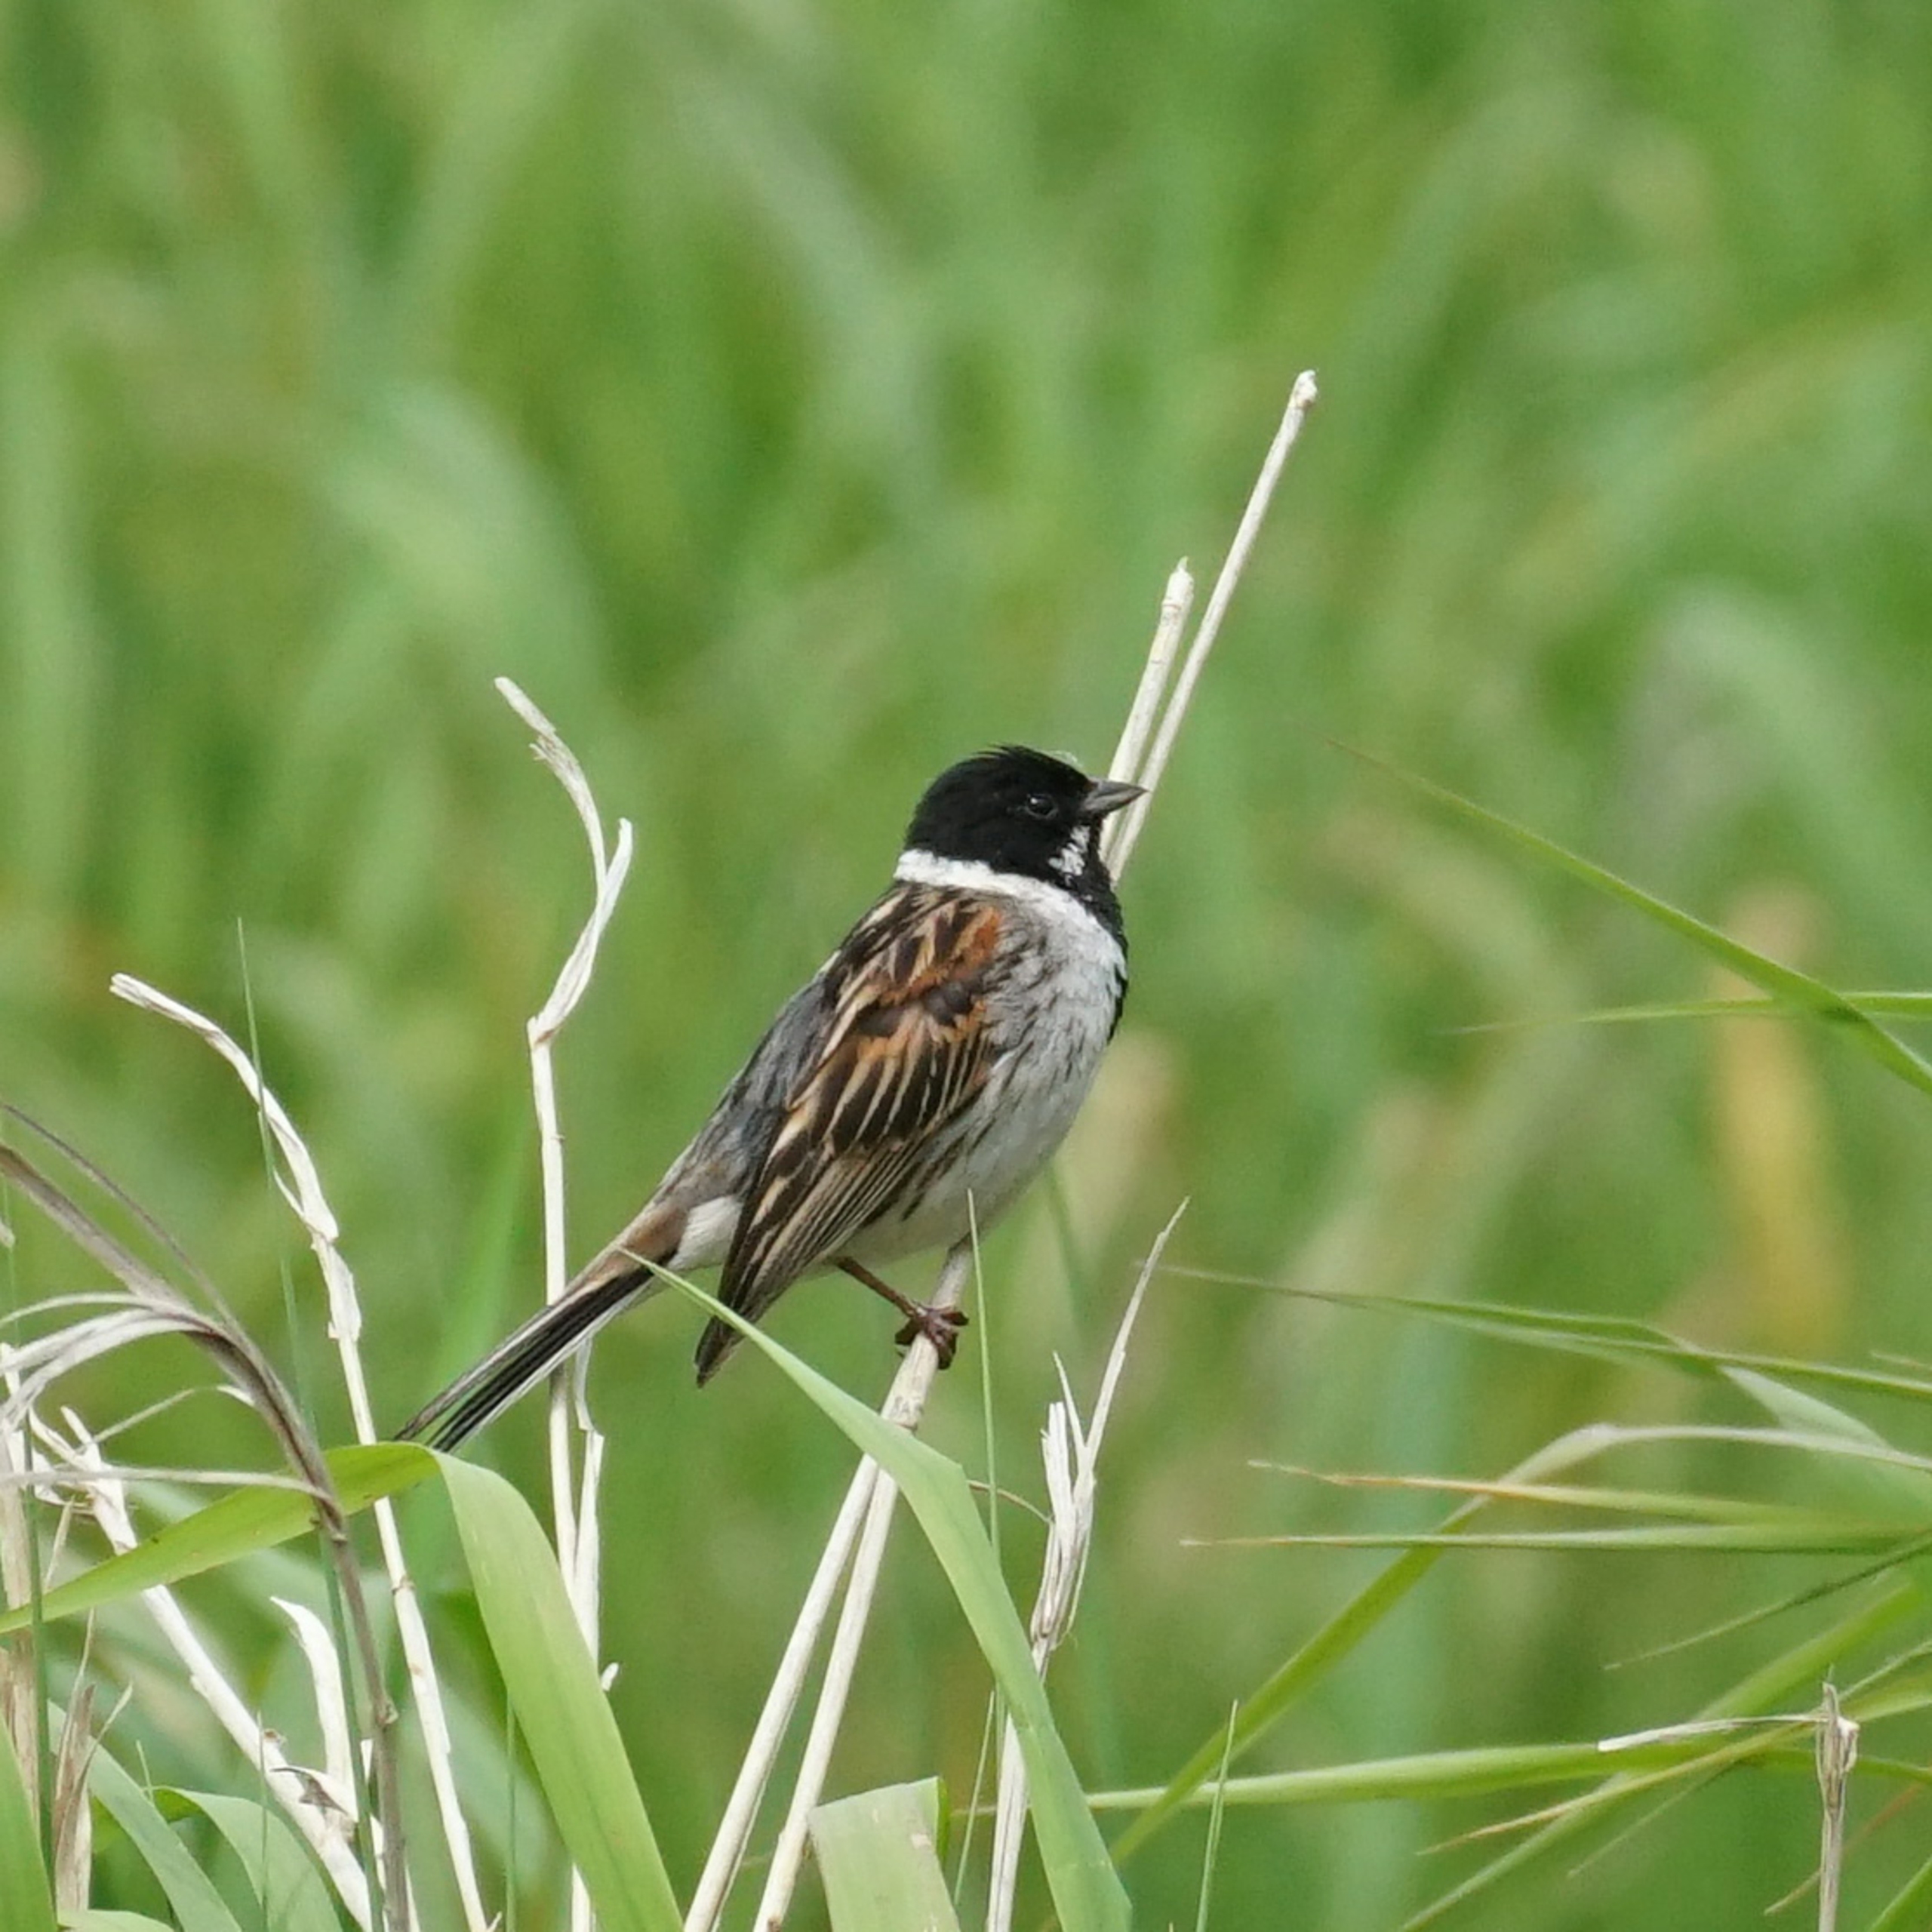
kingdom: Animalia
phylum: Chordata
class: Aves
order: Passeriformes
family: Emberizidae
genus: Emberiza
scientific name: Emberiza schoeniclus
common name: Rørspurv
